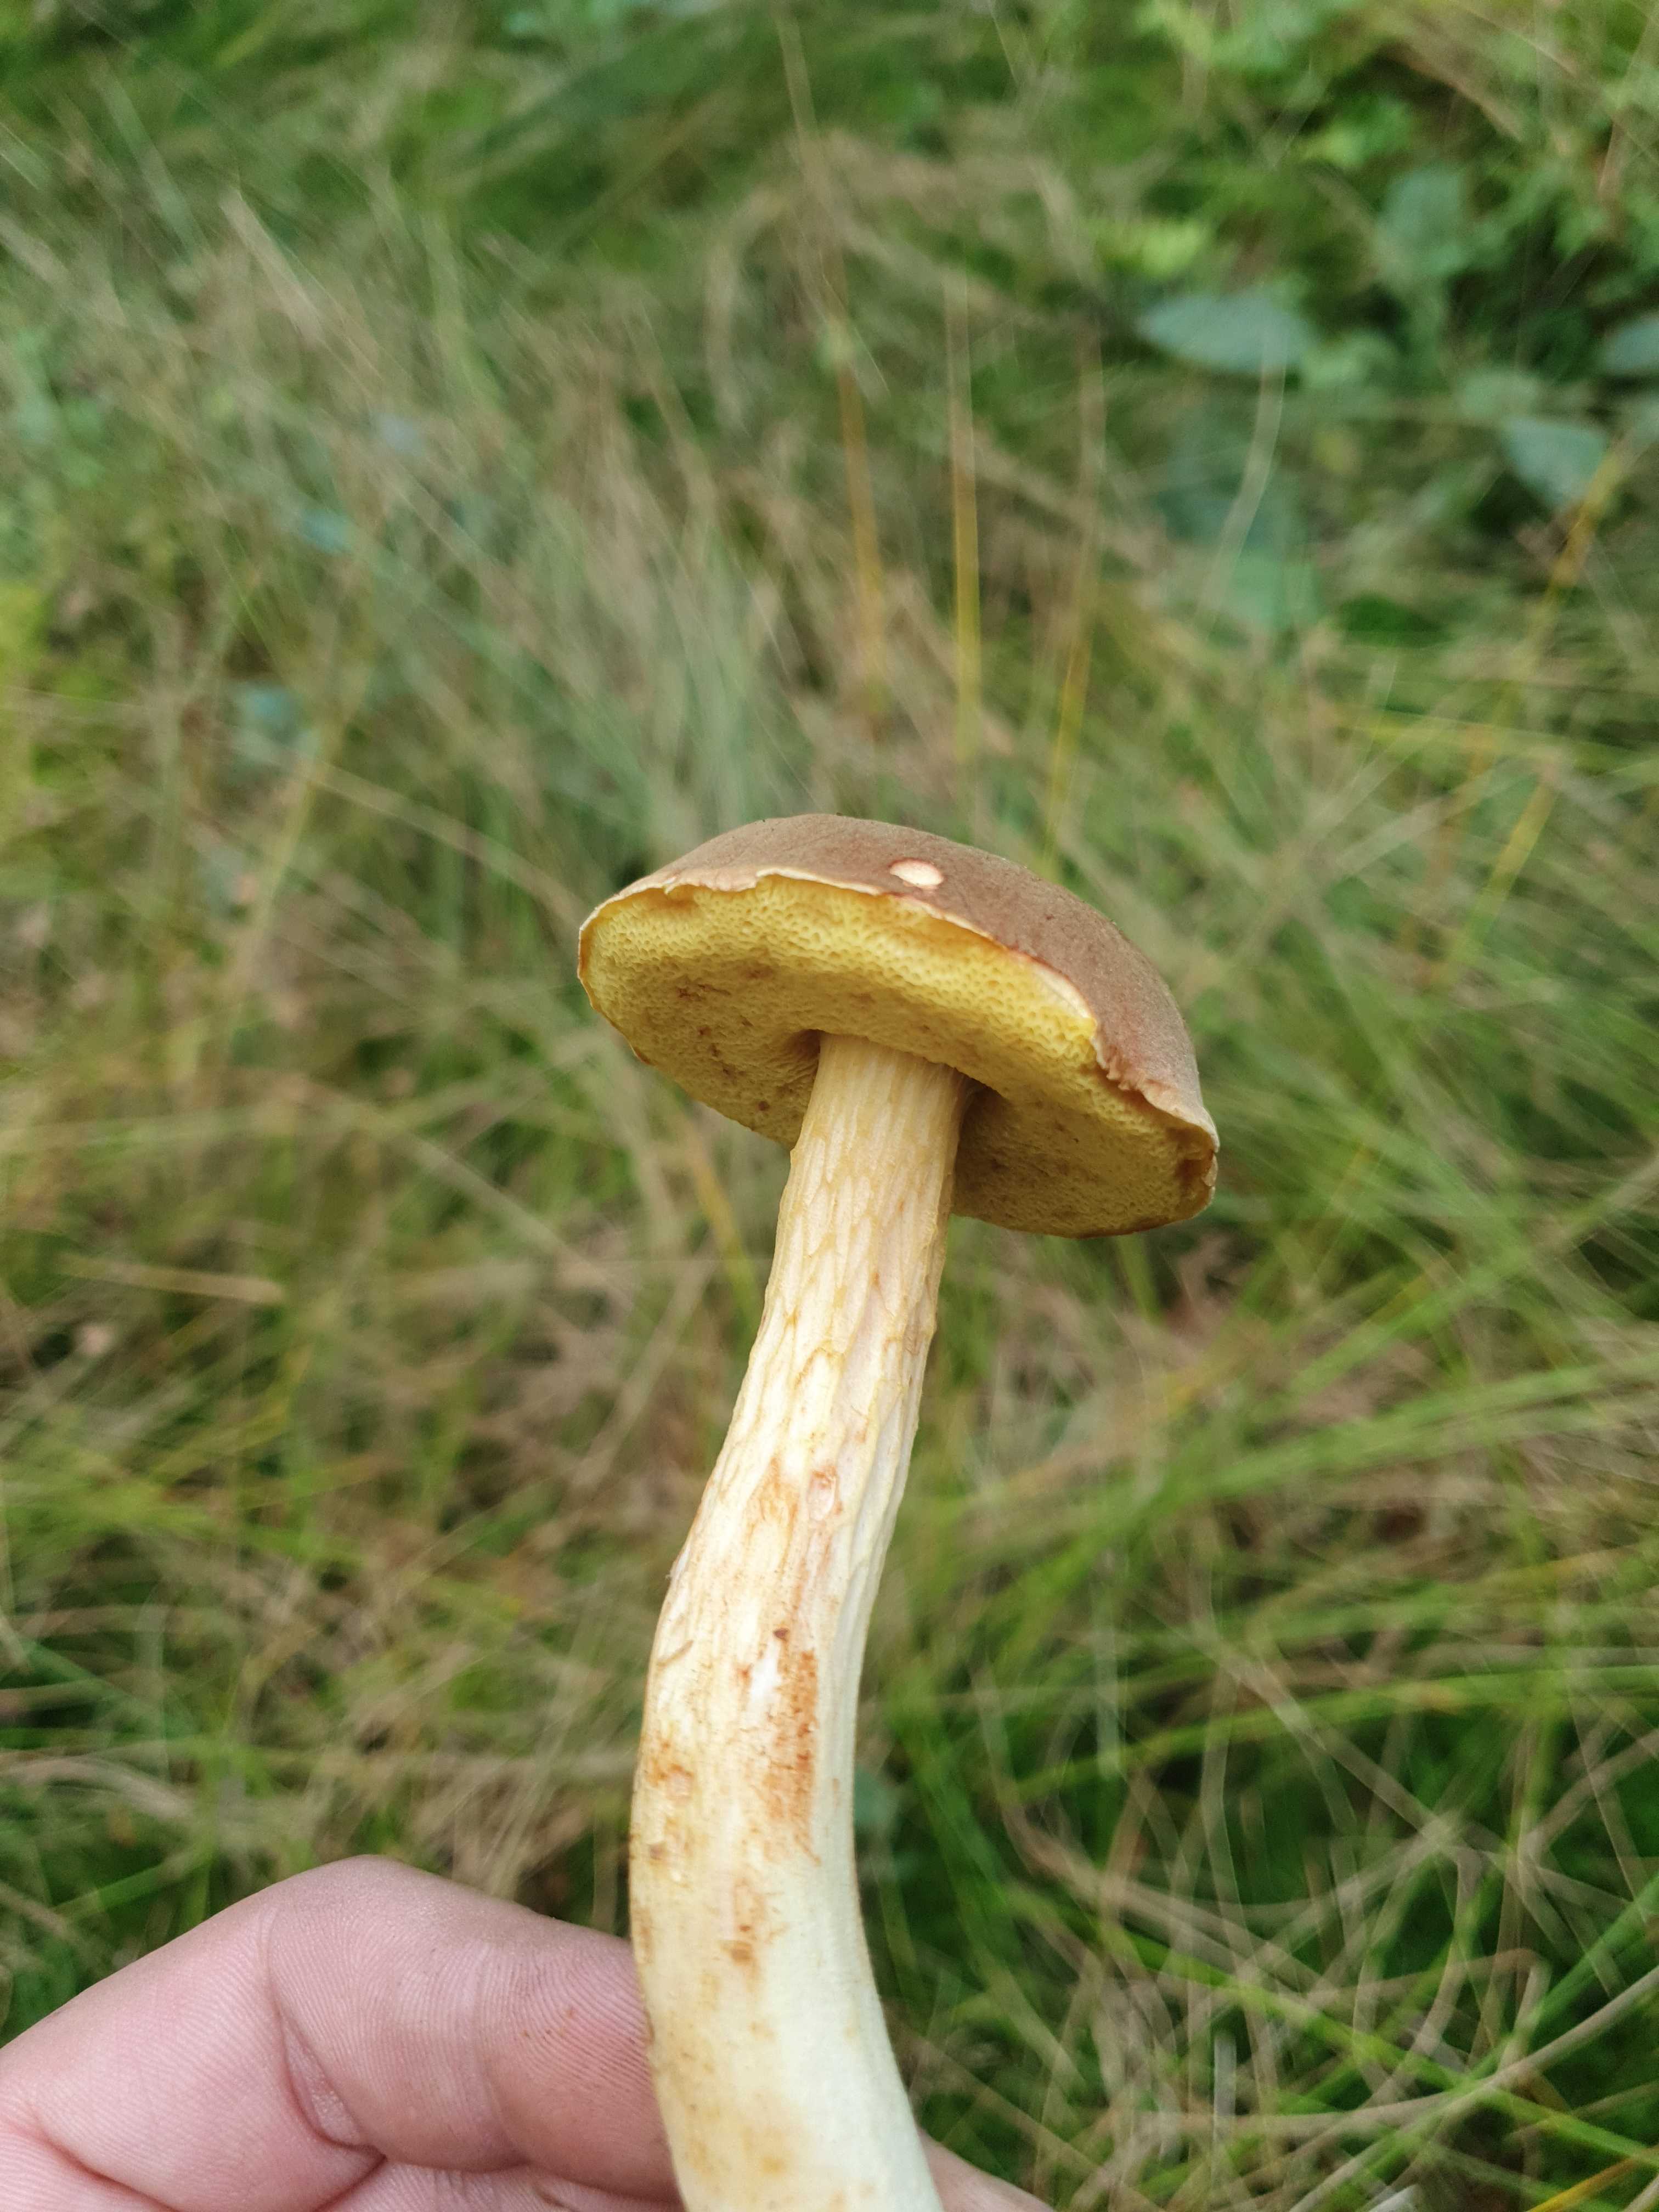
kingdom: Fungi
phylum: Basidiomycota
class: Agaricomycetes
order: Boletales
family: Boletaceae
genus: Xerocomus
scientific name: Xerocomus
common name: filtrørhat
